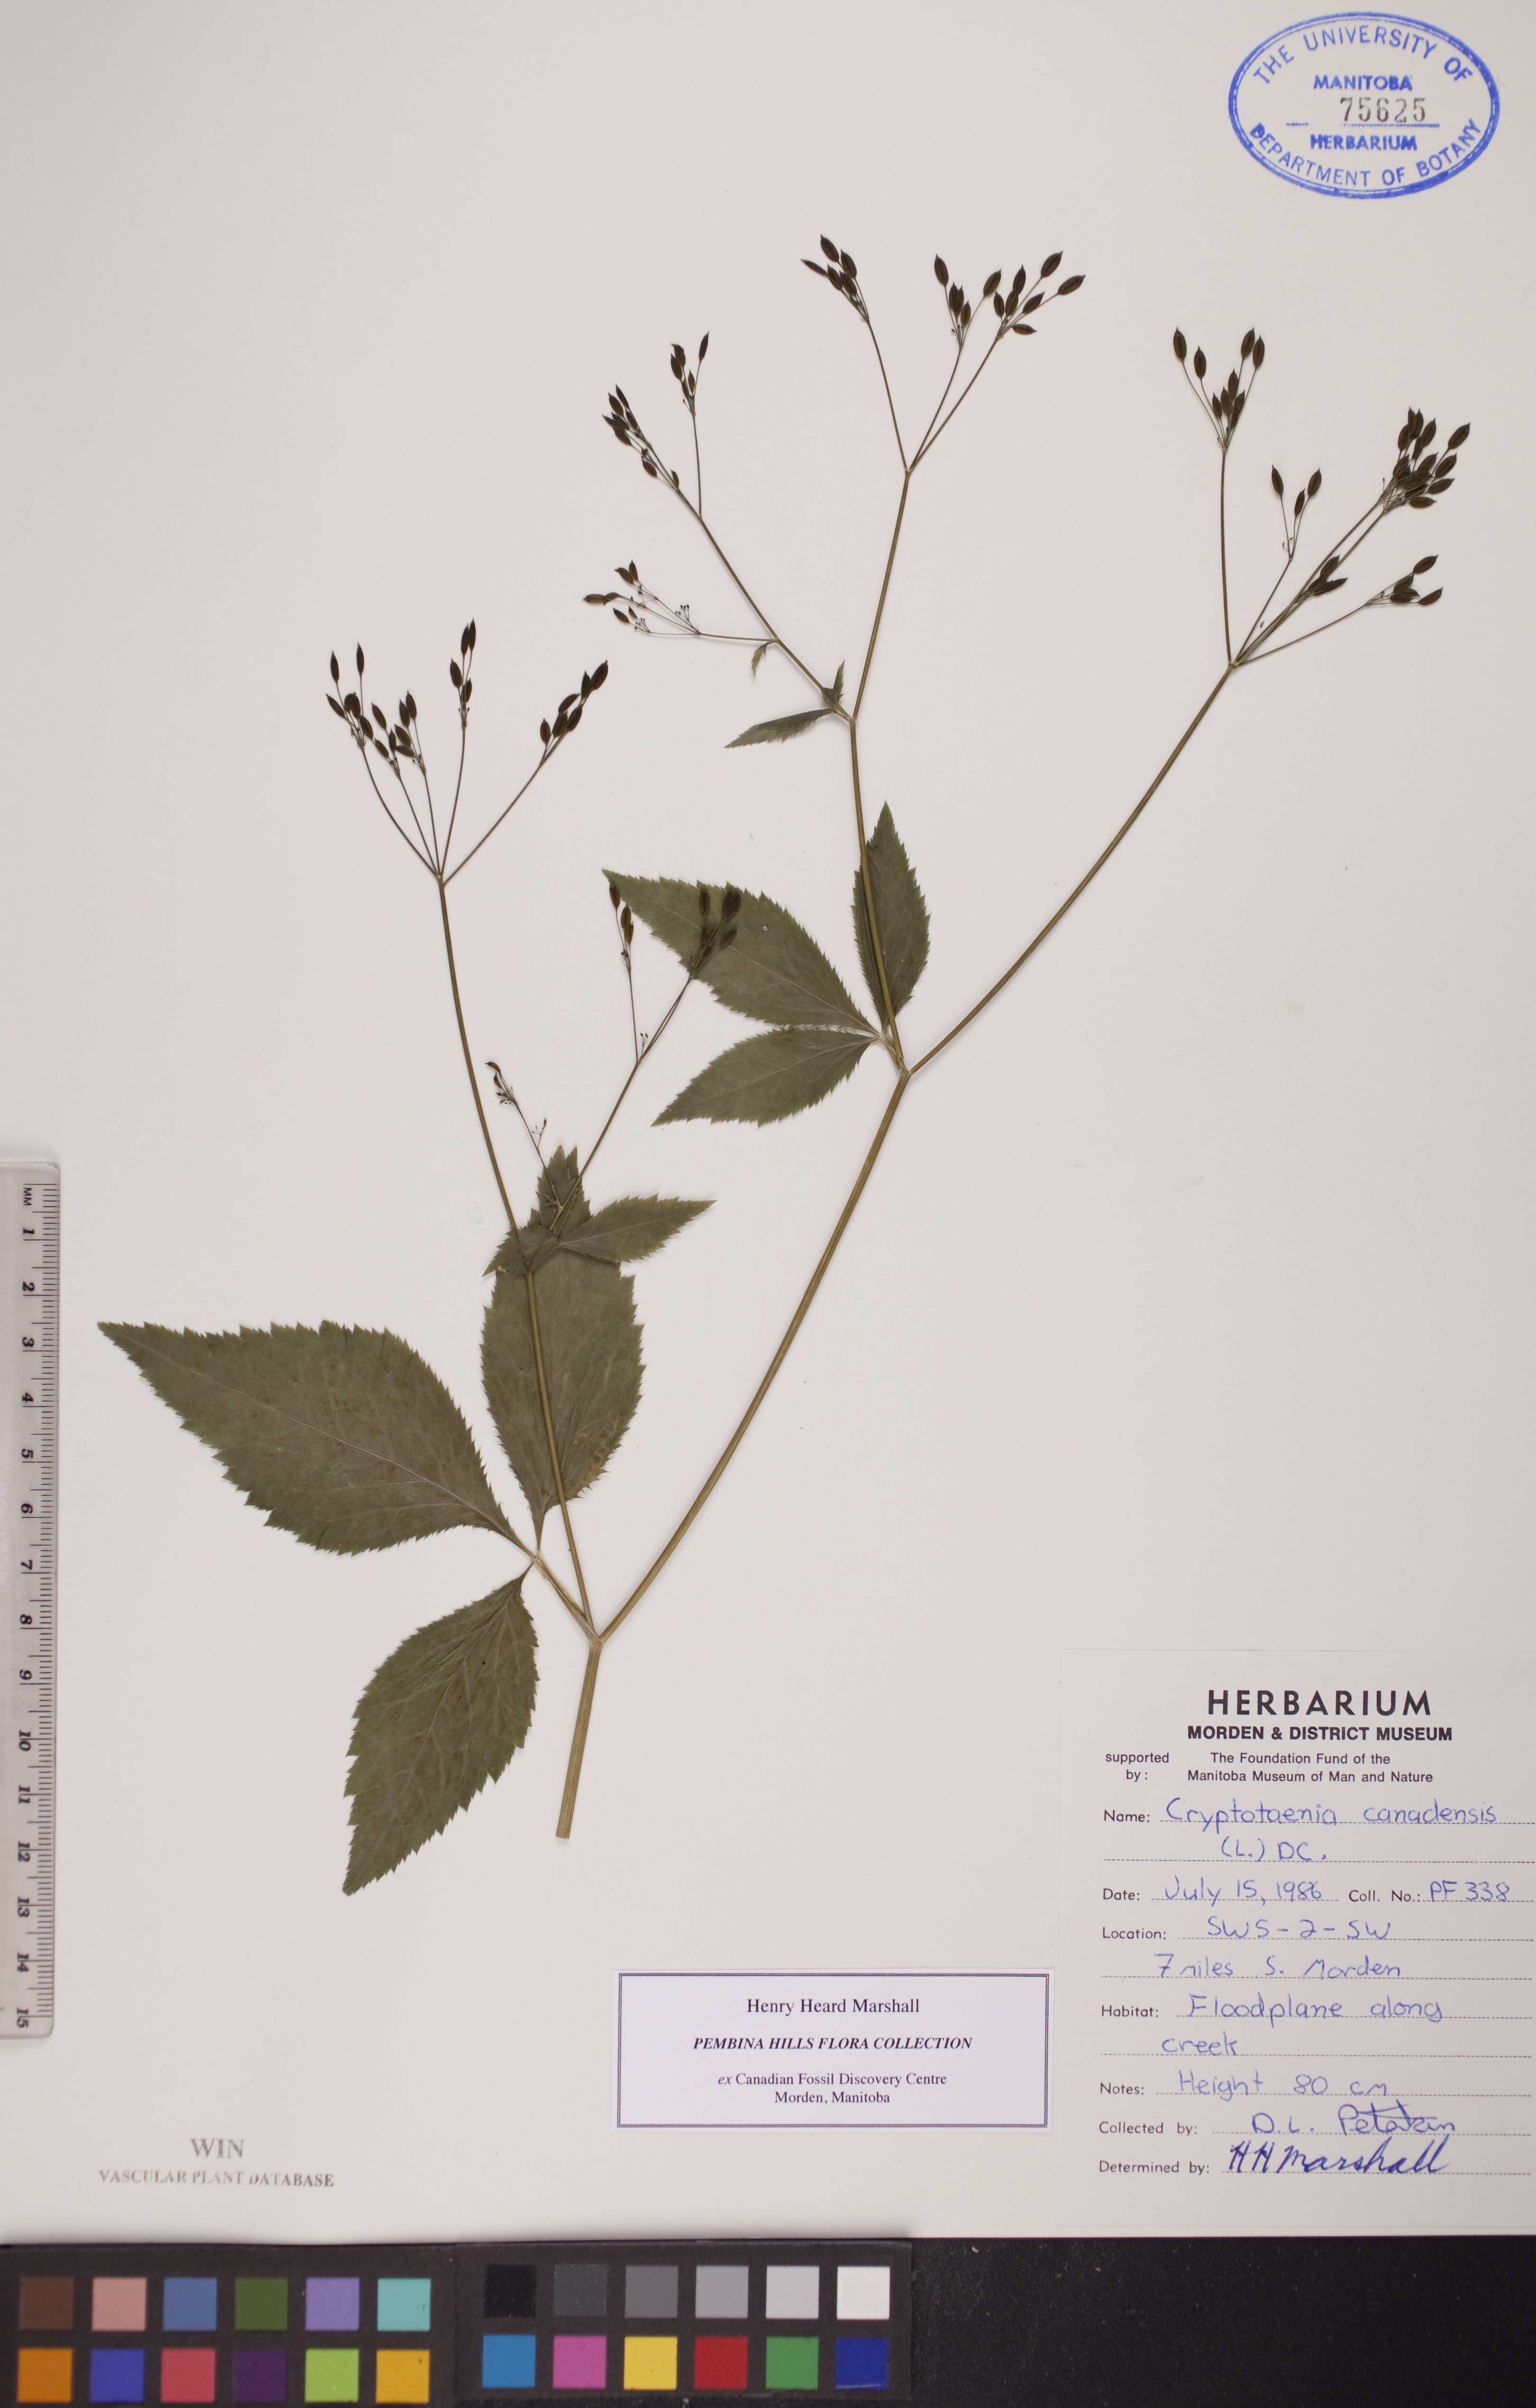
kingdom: Plantae
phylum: Tracheophyta
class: Magnoliopsida
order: Apiales
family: Apiaceae
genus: Cryptotaenia
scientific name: Cryptotaenia canadensis
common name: Honewort
